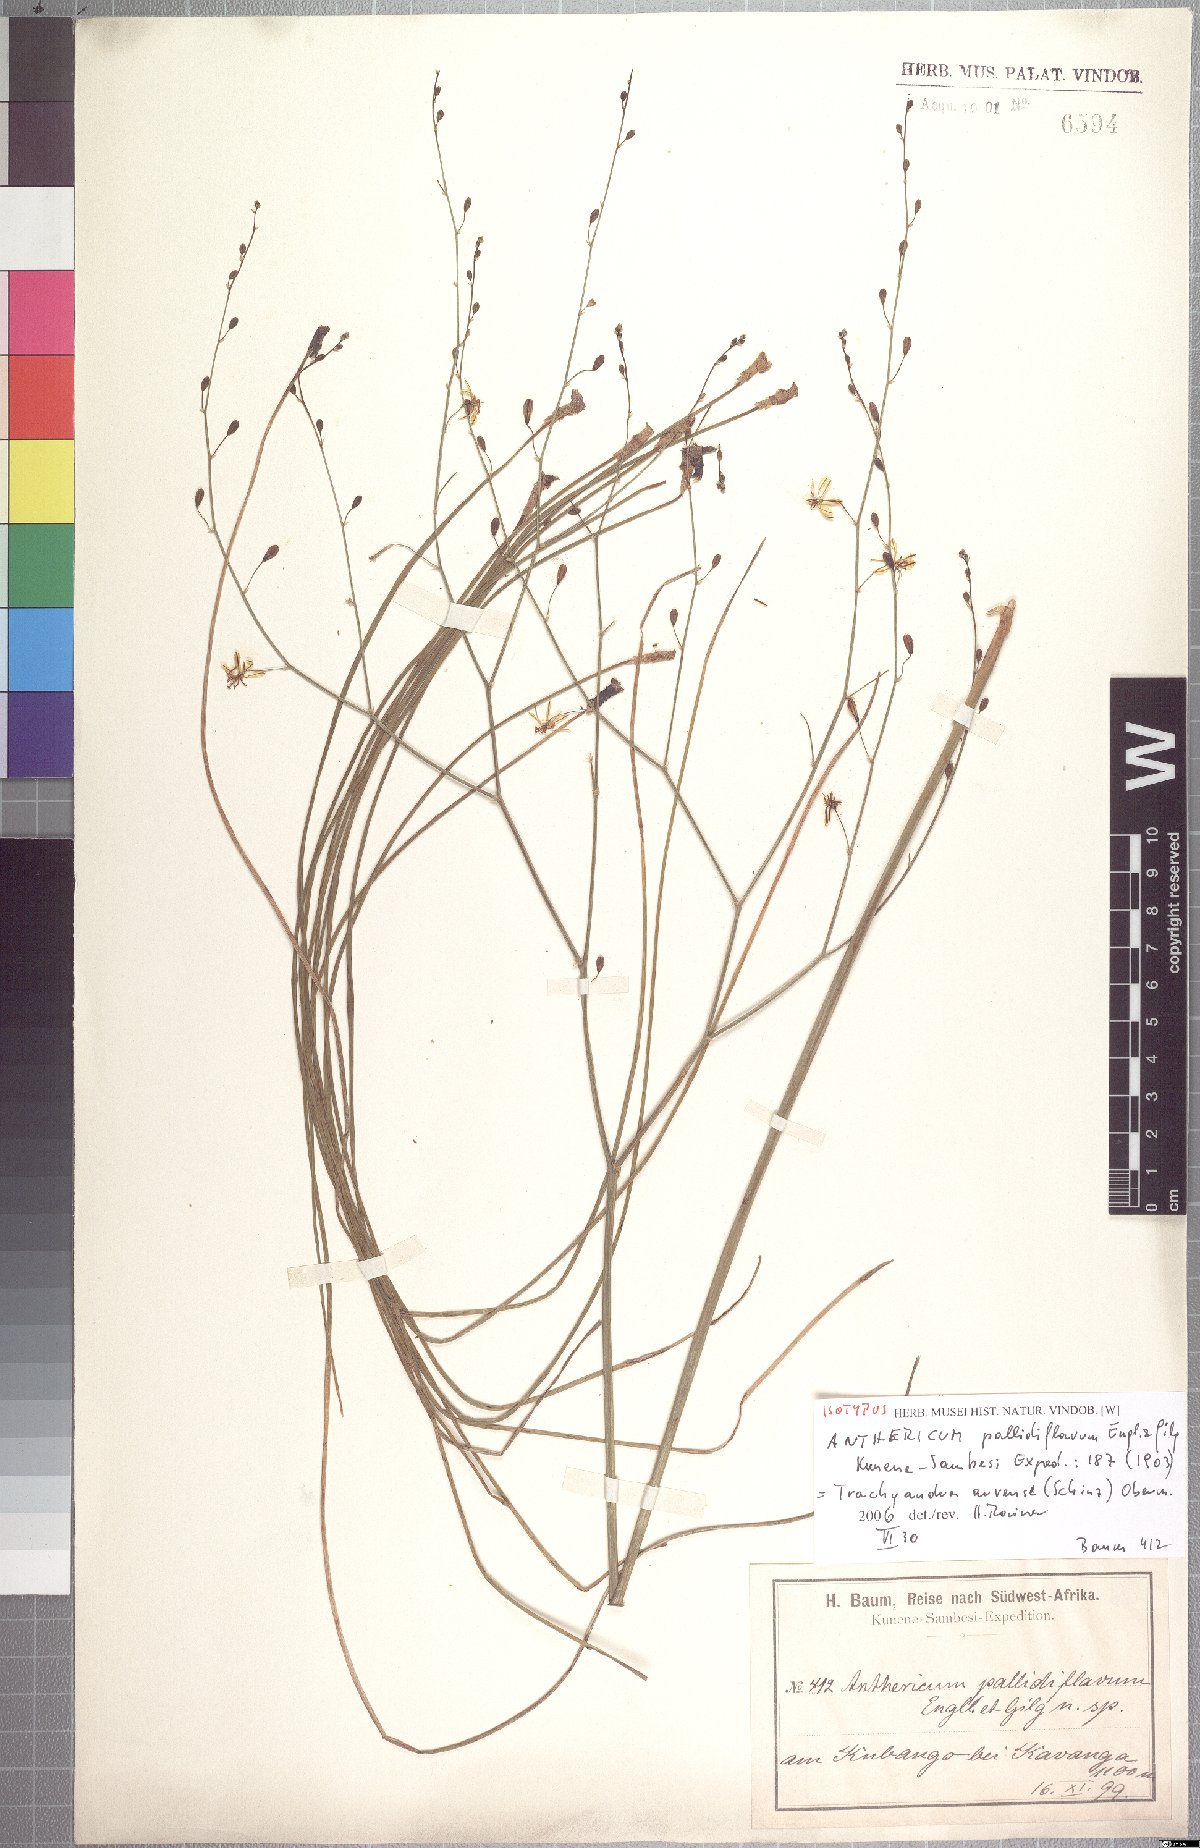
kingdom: Plantae
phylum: Tracheophyta
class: Liliopsida
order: Asparagales
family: Asphodelaceae
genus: Trachyandra
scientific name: Trachyandra arvensis
